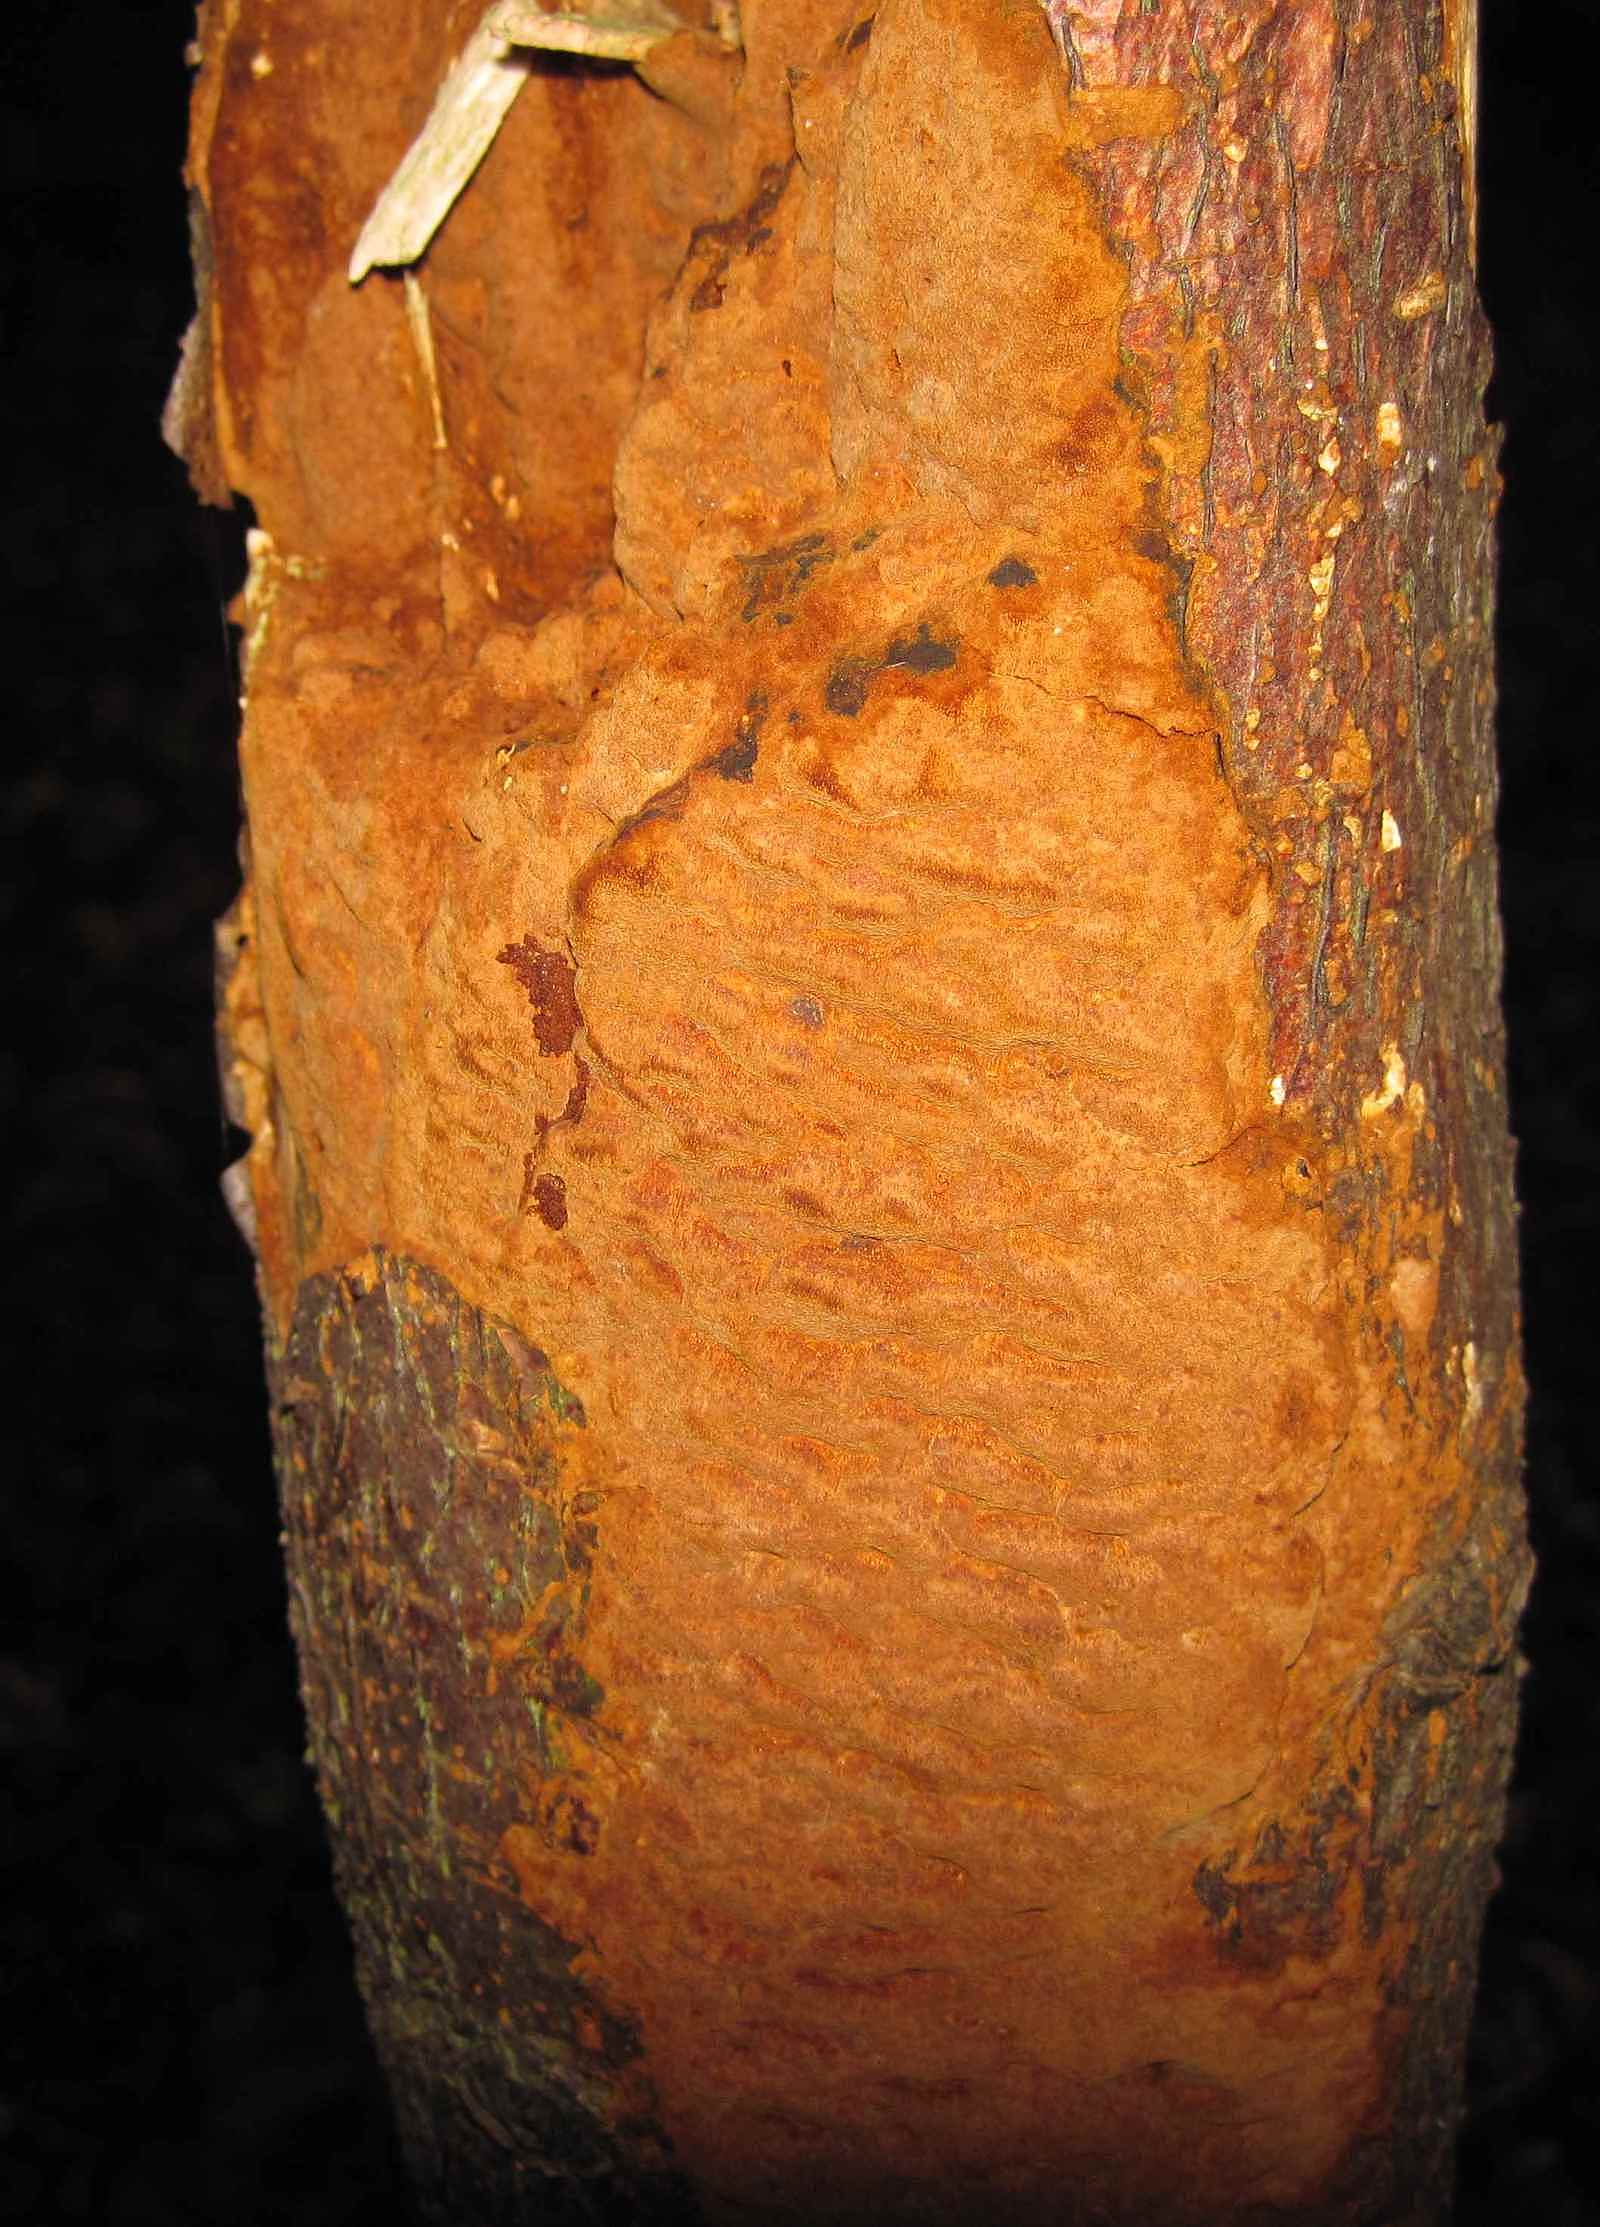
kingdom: Fungi
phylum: Basidiomycota
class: Agaricomycetes
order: Hymenochaetales
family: Hymenochaetaceae
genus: Fuscoporia
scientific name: Fuscoporia ferrea
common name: skorpe-ildporesvamp
